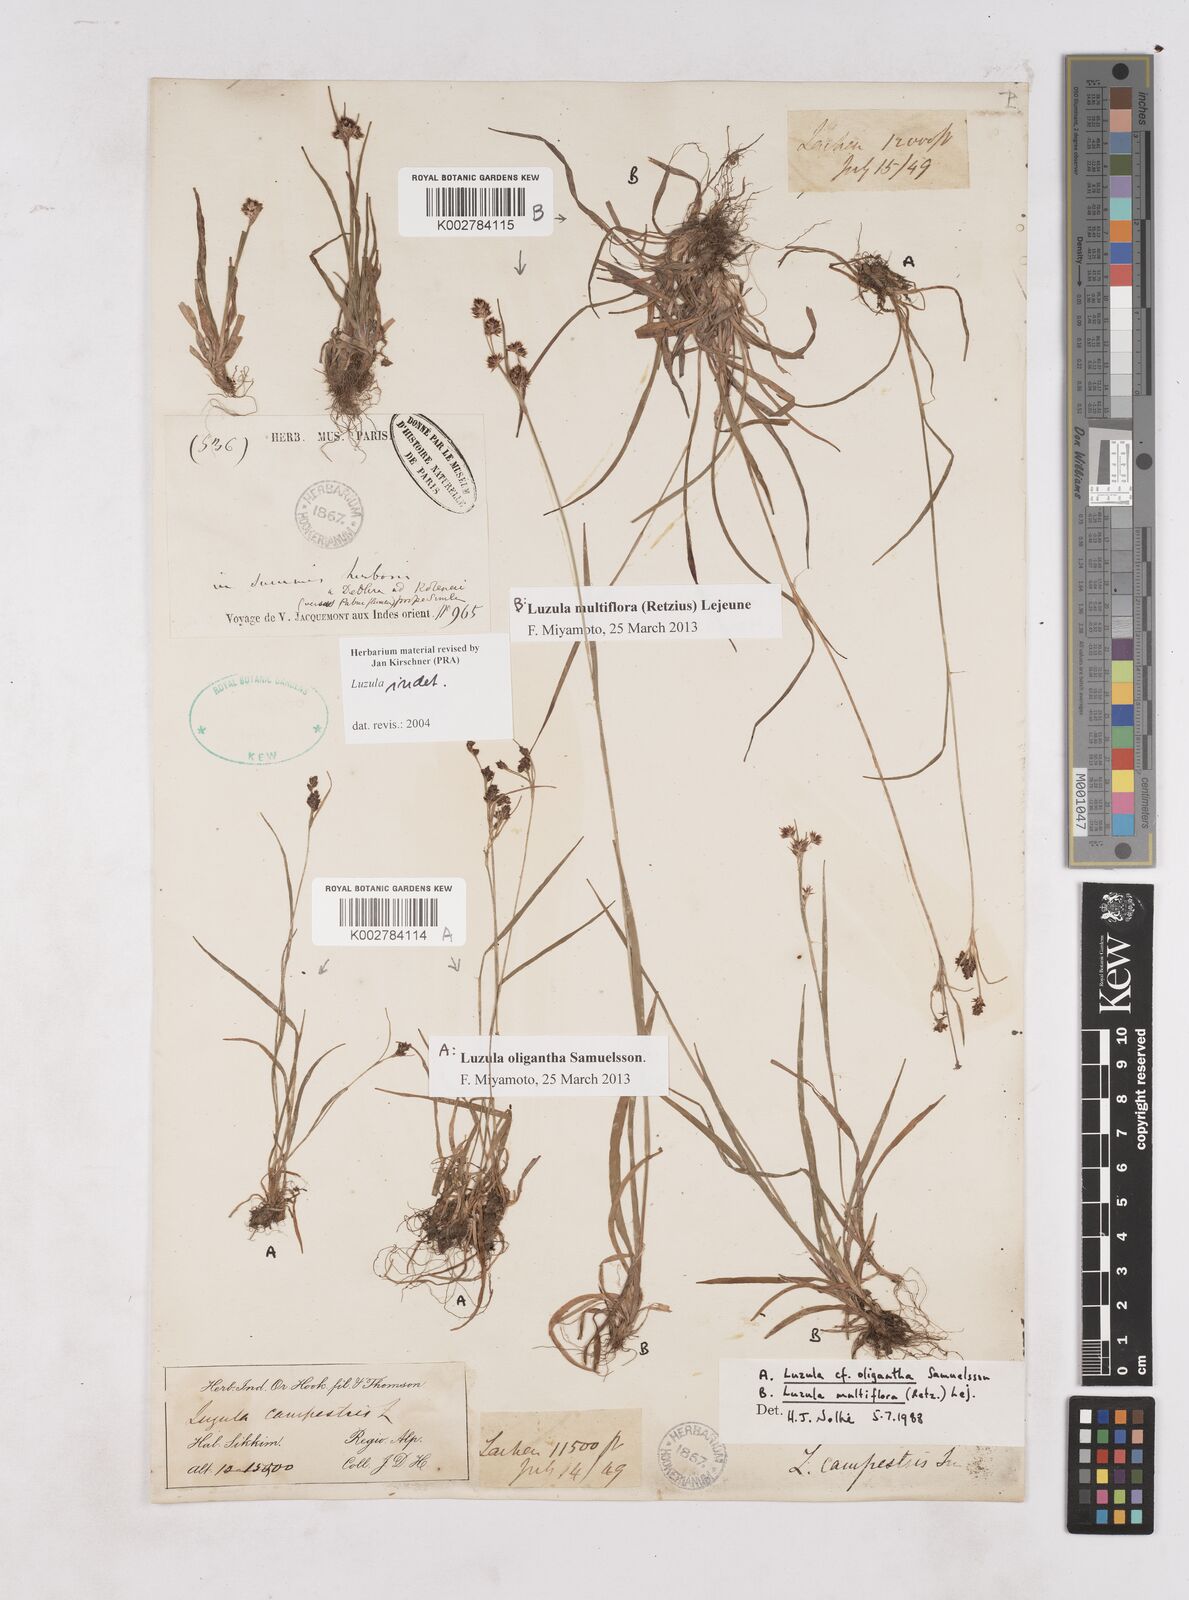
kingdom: Plantae
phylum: Tracheophyta
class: Liliopsida
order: Poales
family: Juncaceae
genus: Luzula
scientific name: Luzula
